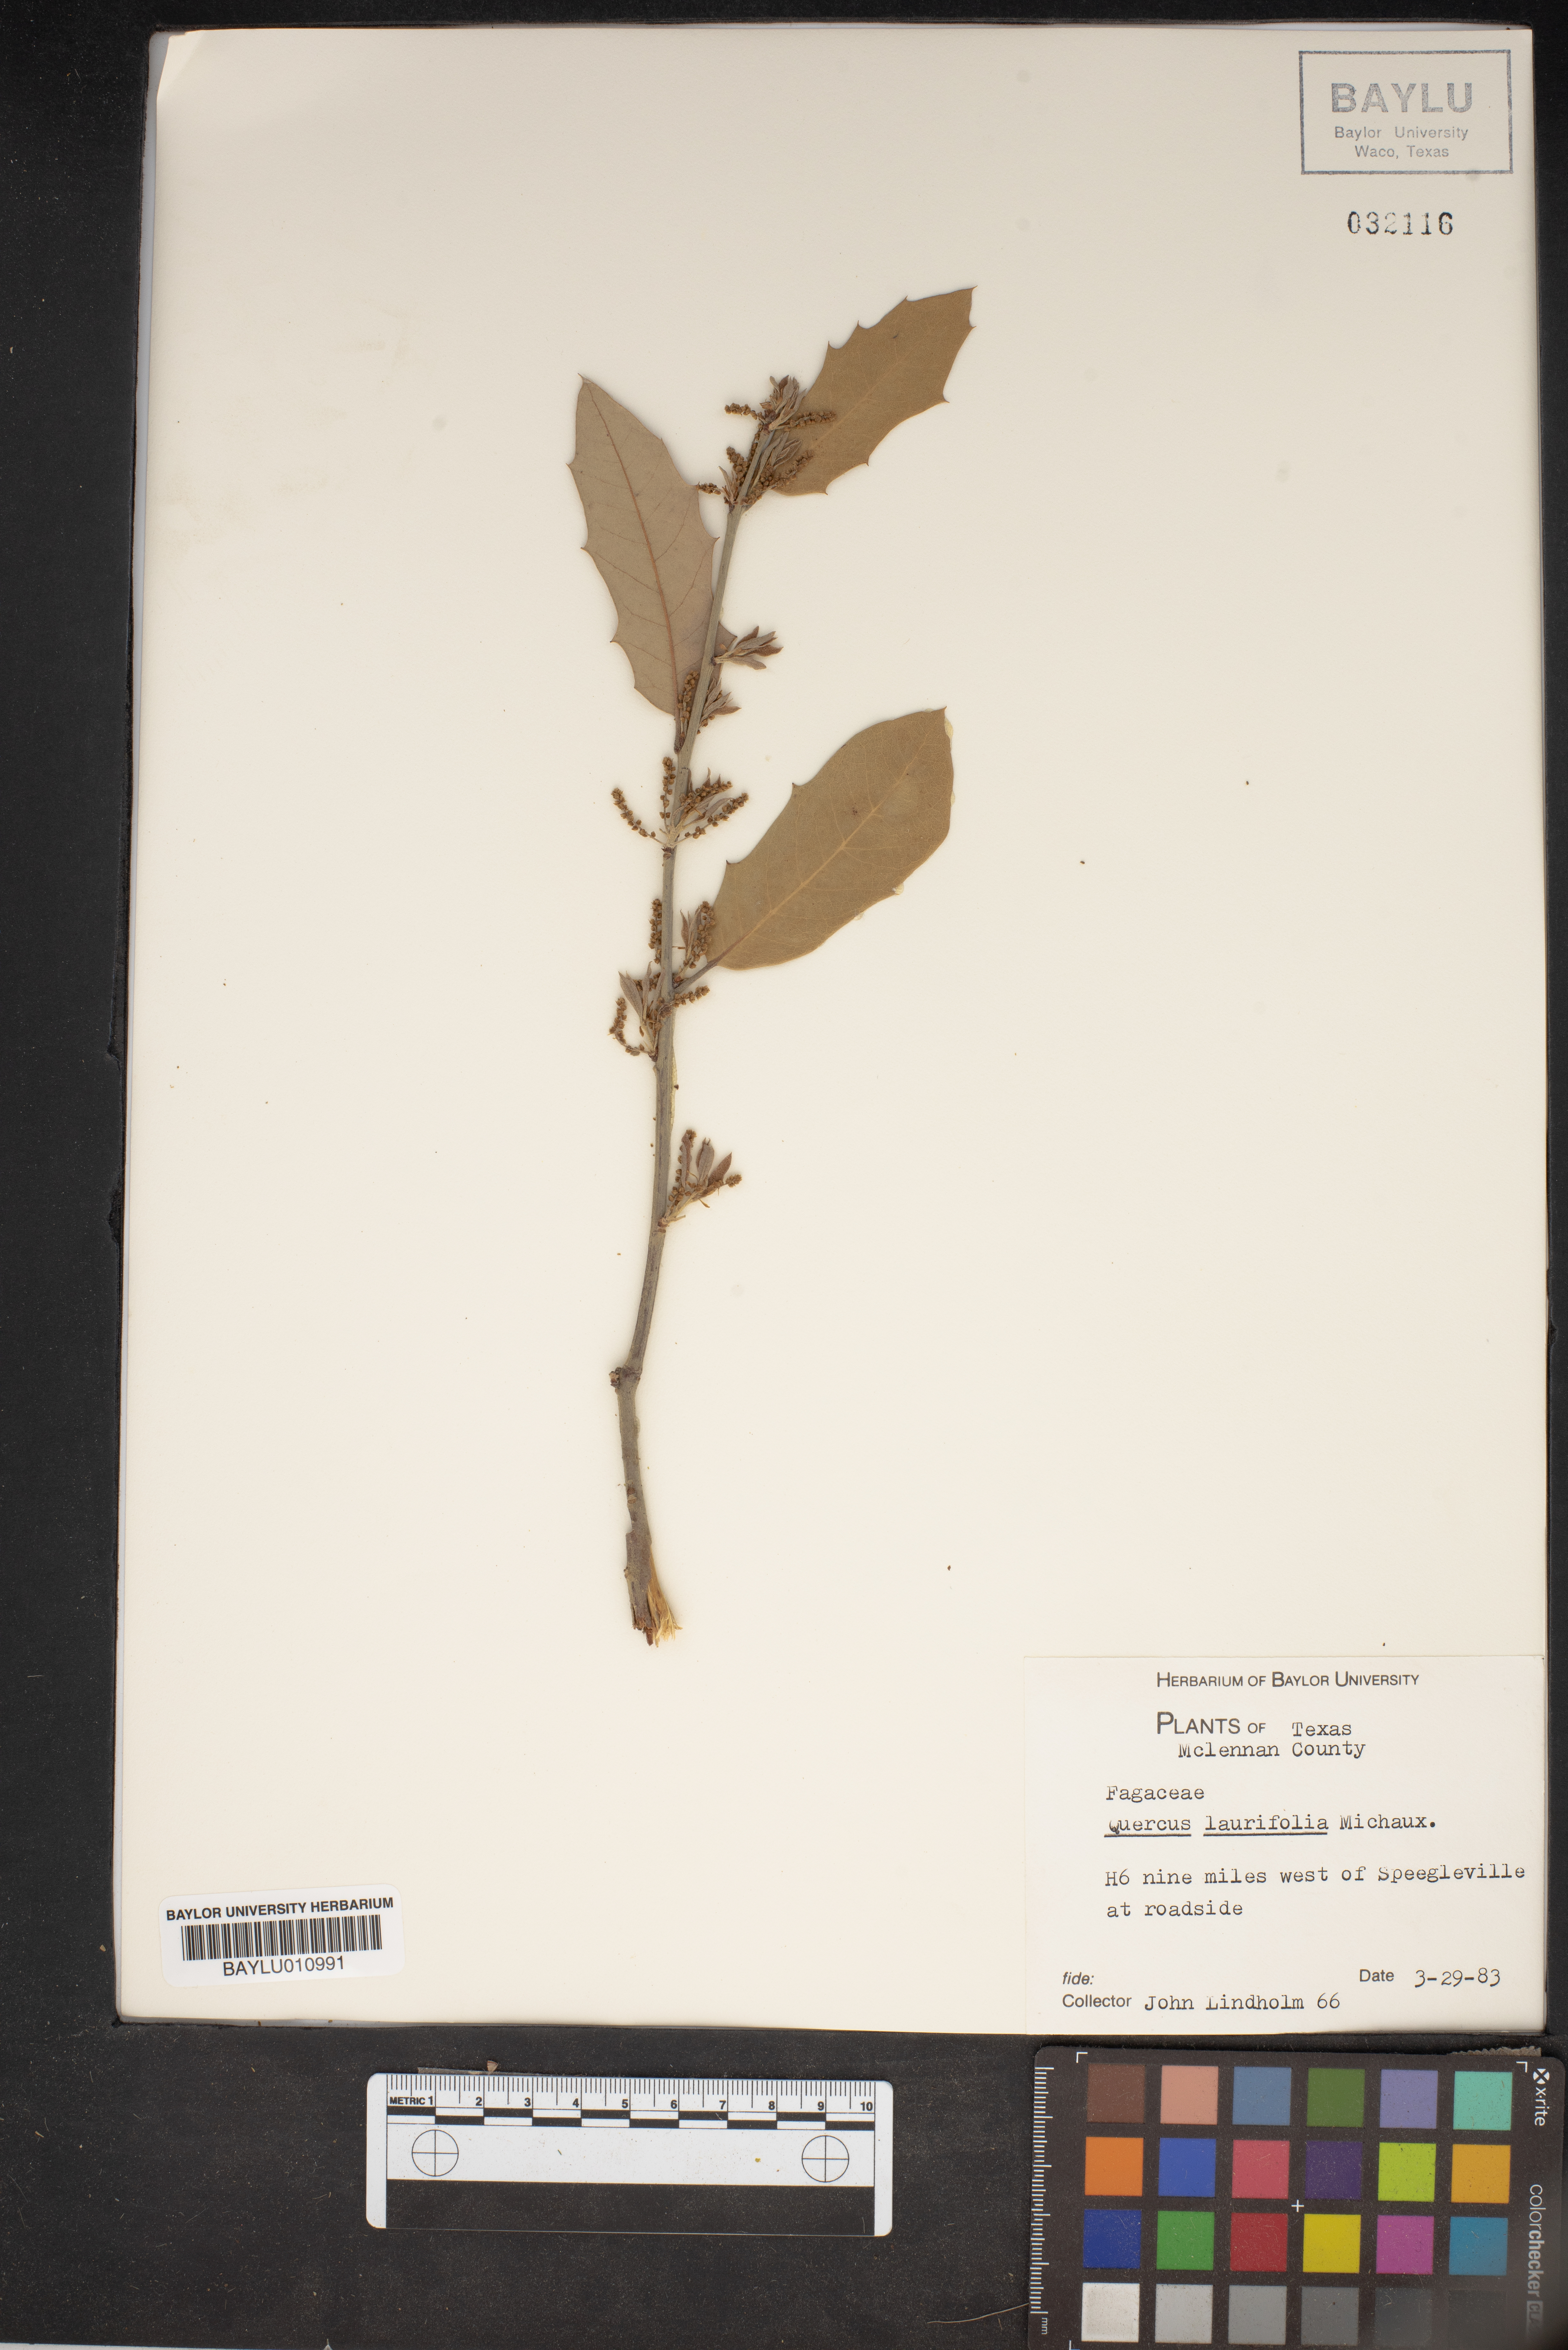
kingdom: Plantae
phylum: Tracheophyta
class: Magnoliopsida
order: Fagales
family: Fagaceae
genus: Quercus
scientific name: Quercus laurifolia
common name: Swamp laurel oak
